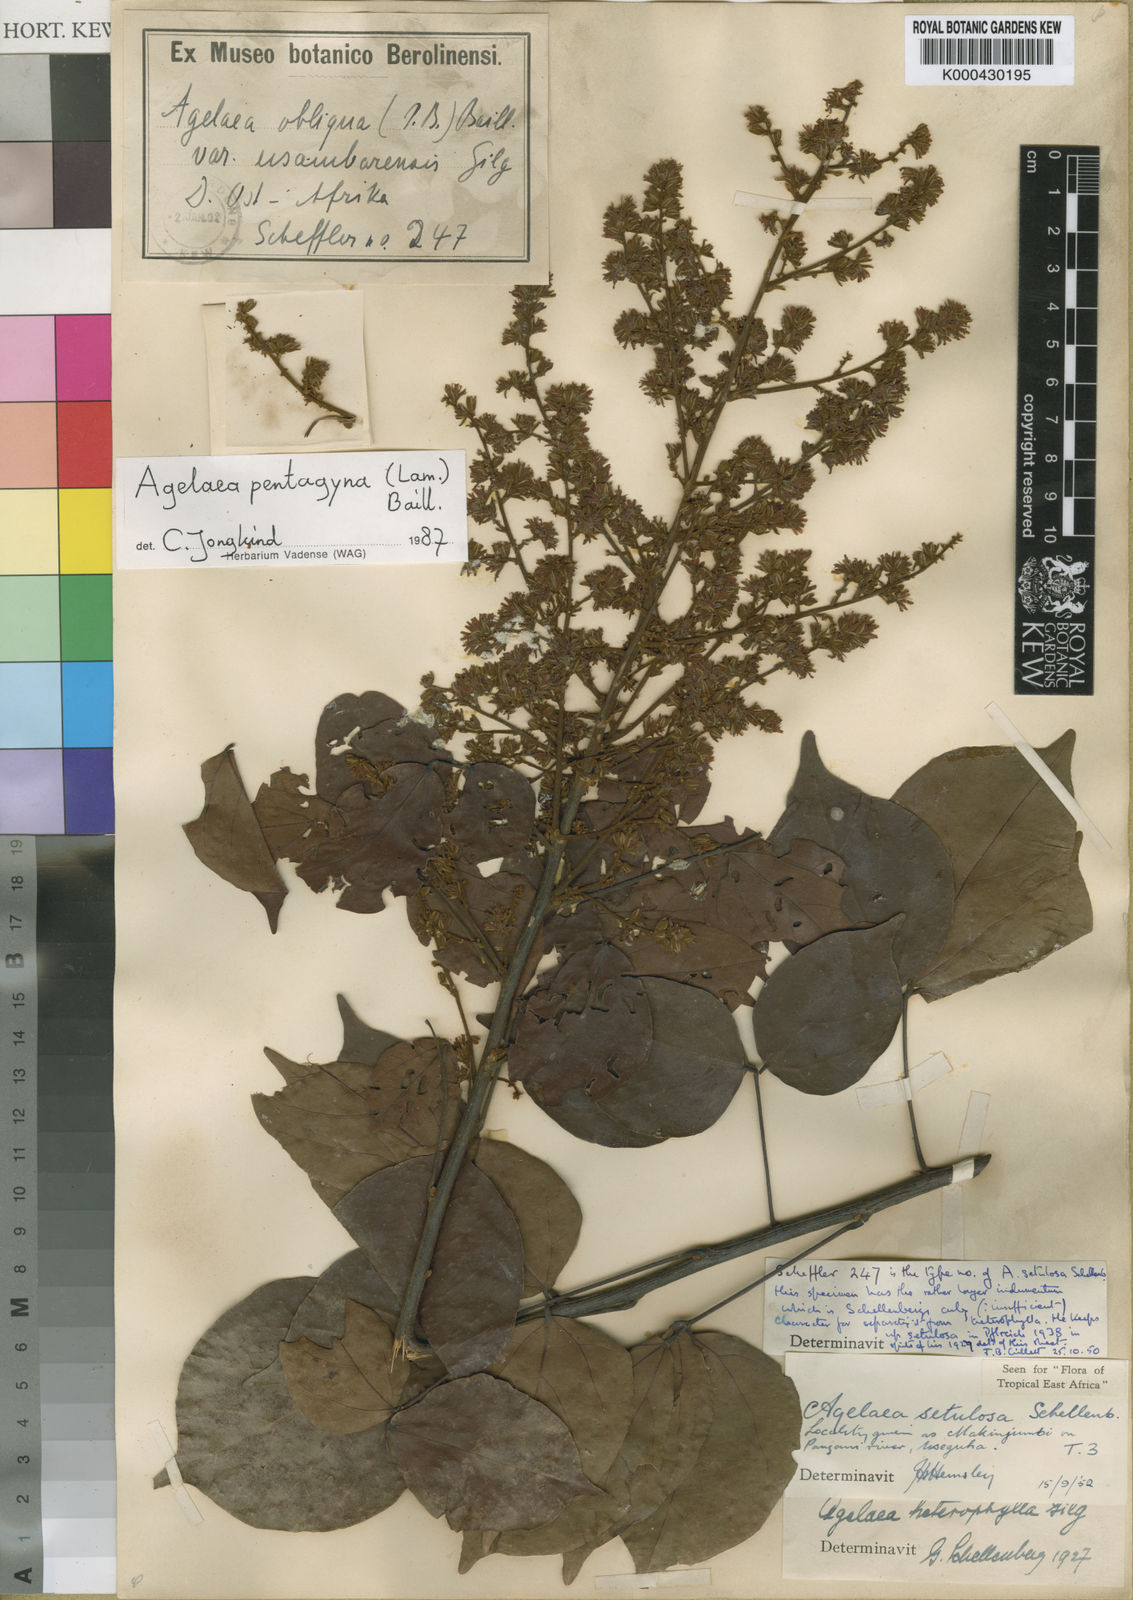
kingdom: Plantae
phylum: Tracheophyta
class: Magnoliopsida
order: Oxalidales
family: Connaraceae
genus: Agelaea
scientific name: Agelaea pentagyna
